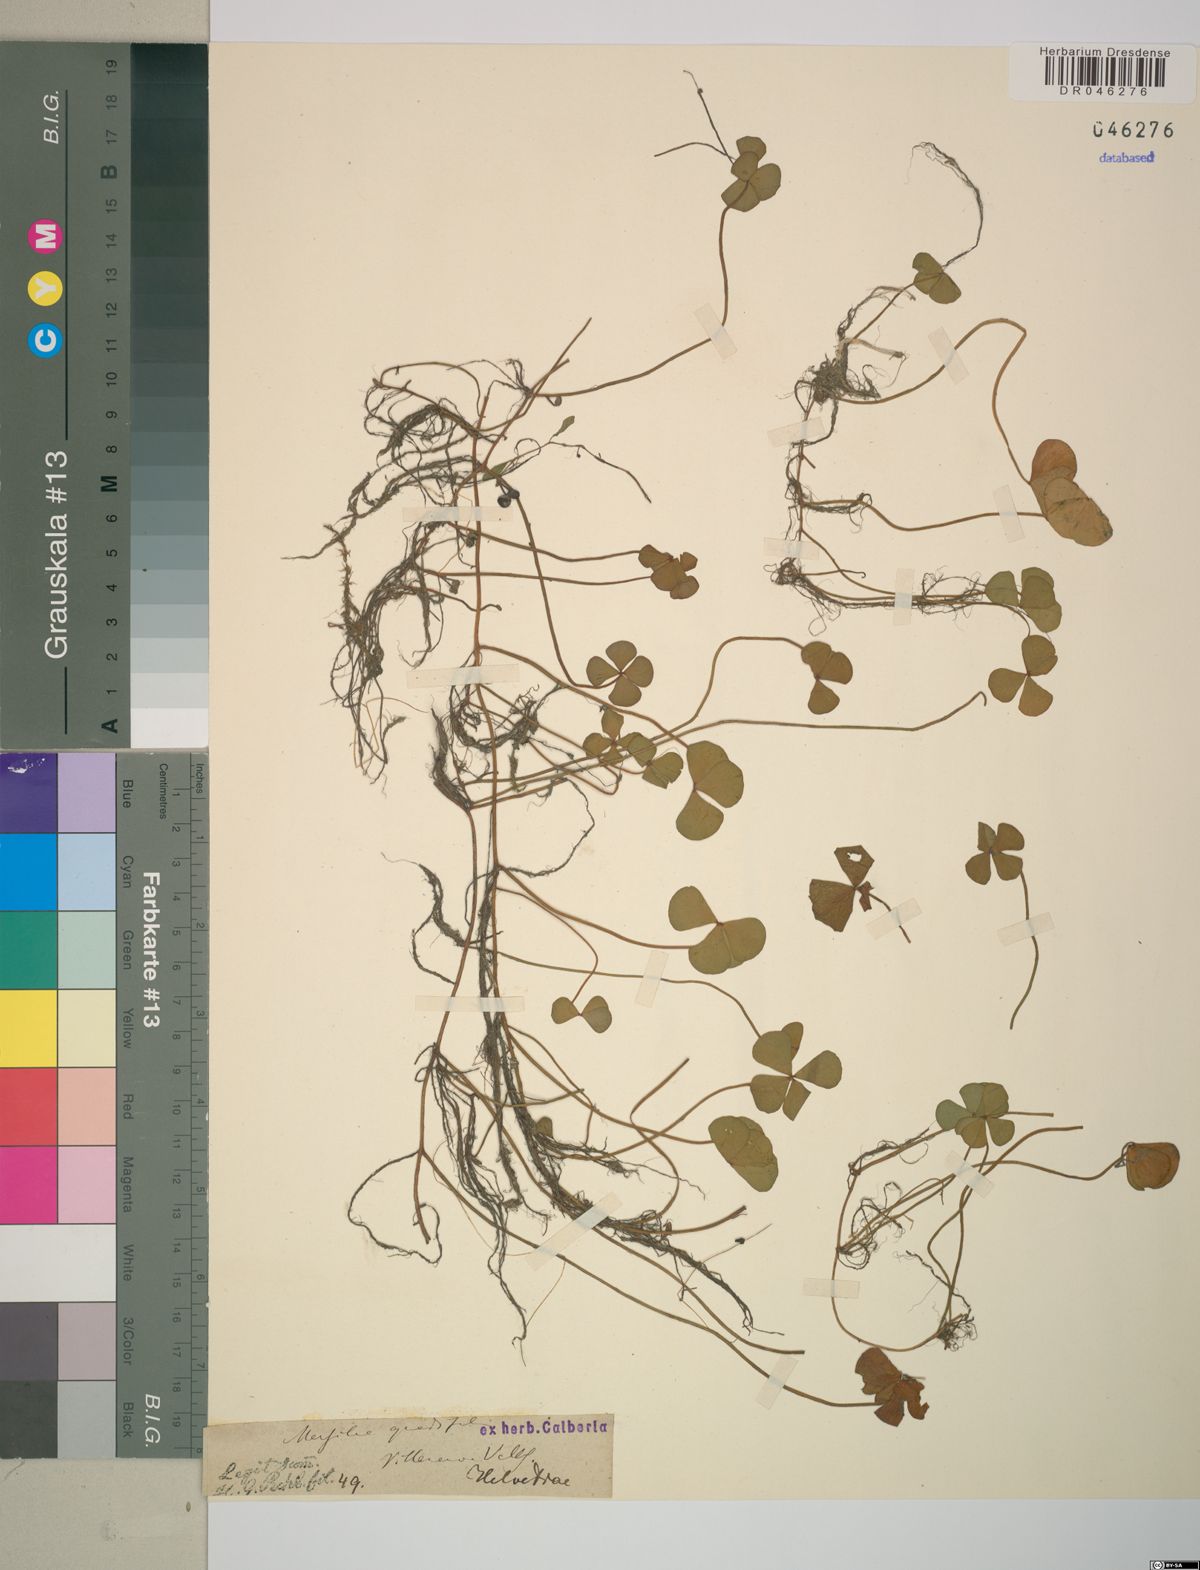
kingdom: Plantae
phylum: Tracheophyta
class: Polypodiopsida
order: Salviniales
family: Marsileaceae
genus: Marsilea
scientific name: Marsilea quadrifolia
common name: Water shamrock
